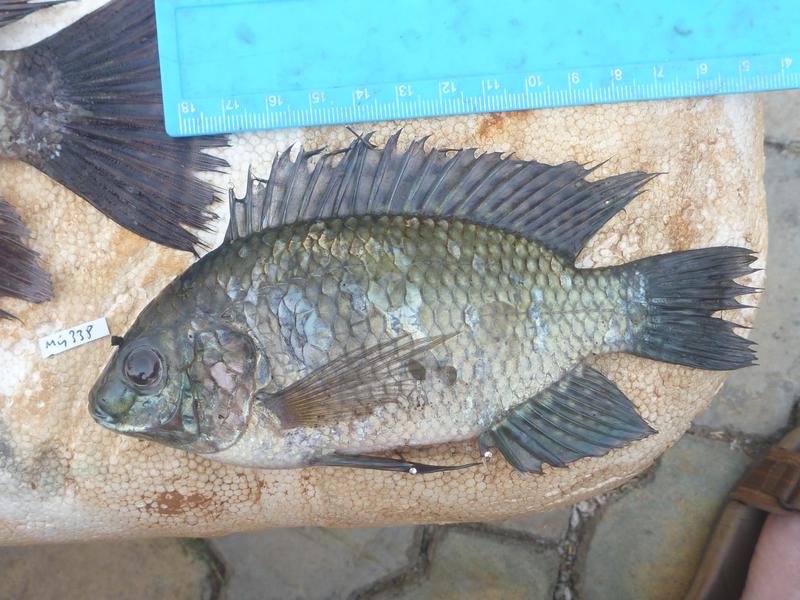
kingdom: Animalia
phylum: Chordata
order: Perciformes
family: Cichlidae
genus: Oreochromis
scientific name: Oreochromis leucostictus
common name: Blue spotted tilapia
